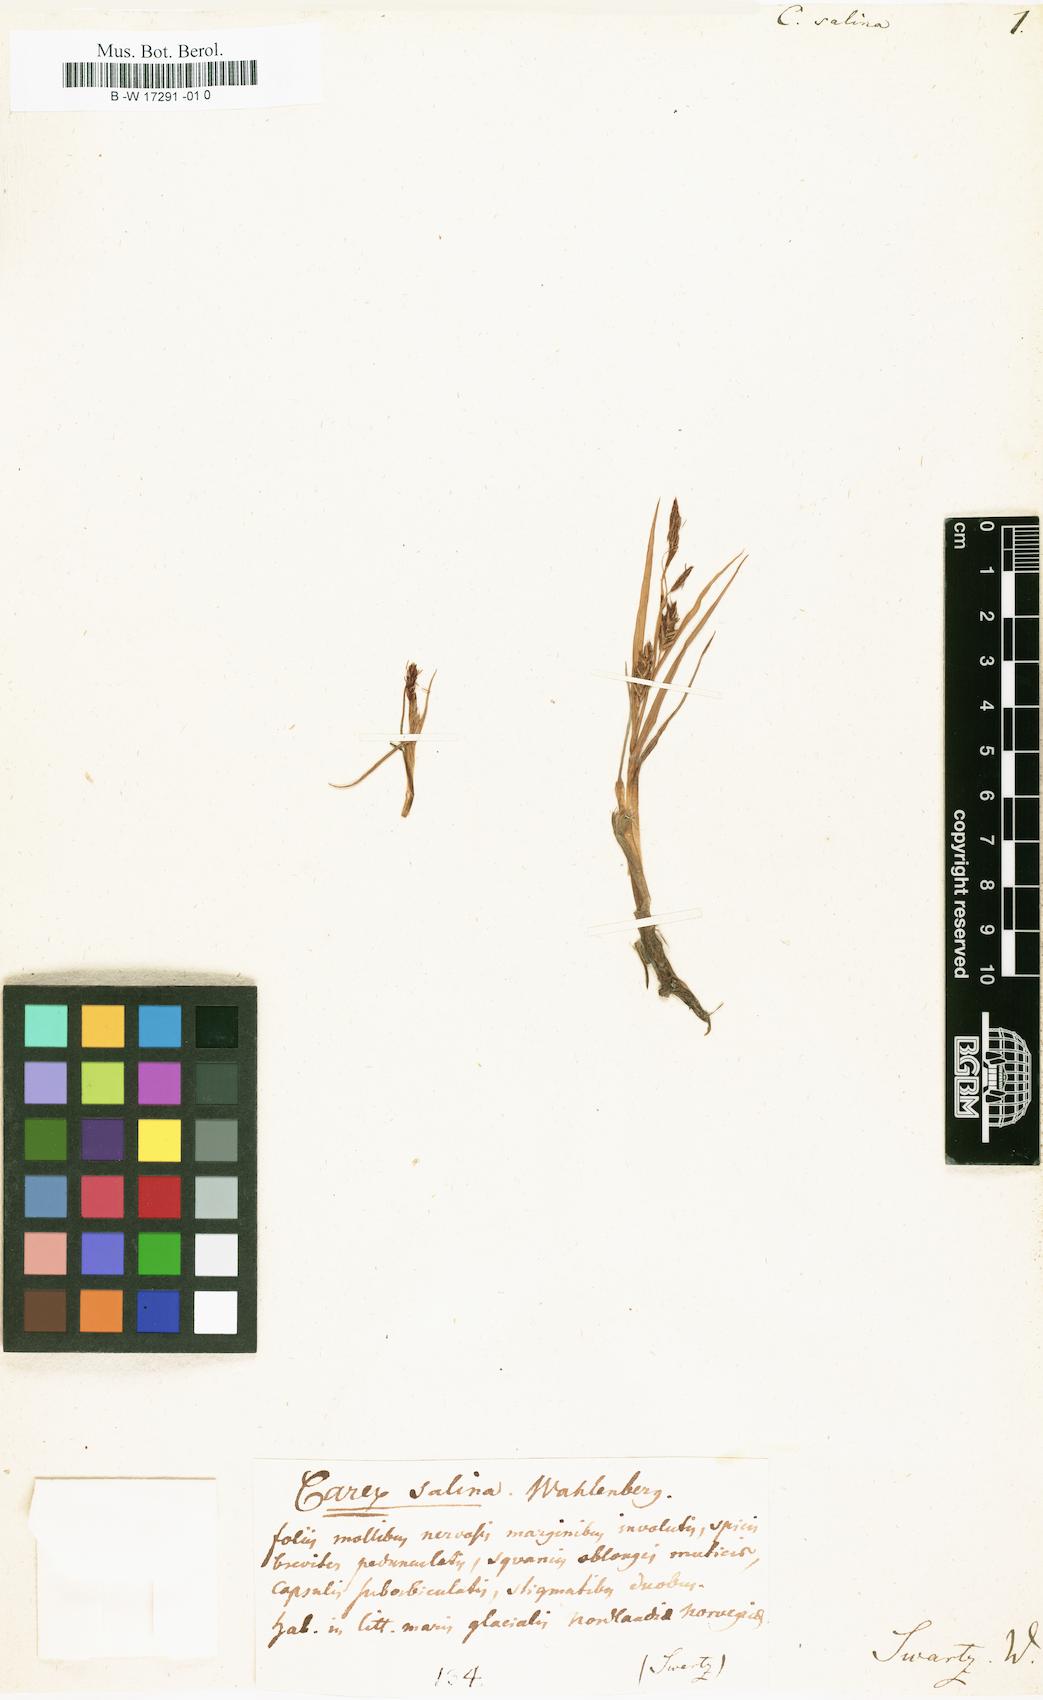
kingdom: Plantae
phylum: Tracheophyta
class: Liliopsida
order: Poales
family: Cyperaceae
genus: Carex
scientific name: Carex salina
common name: Saltmarsh sedge
